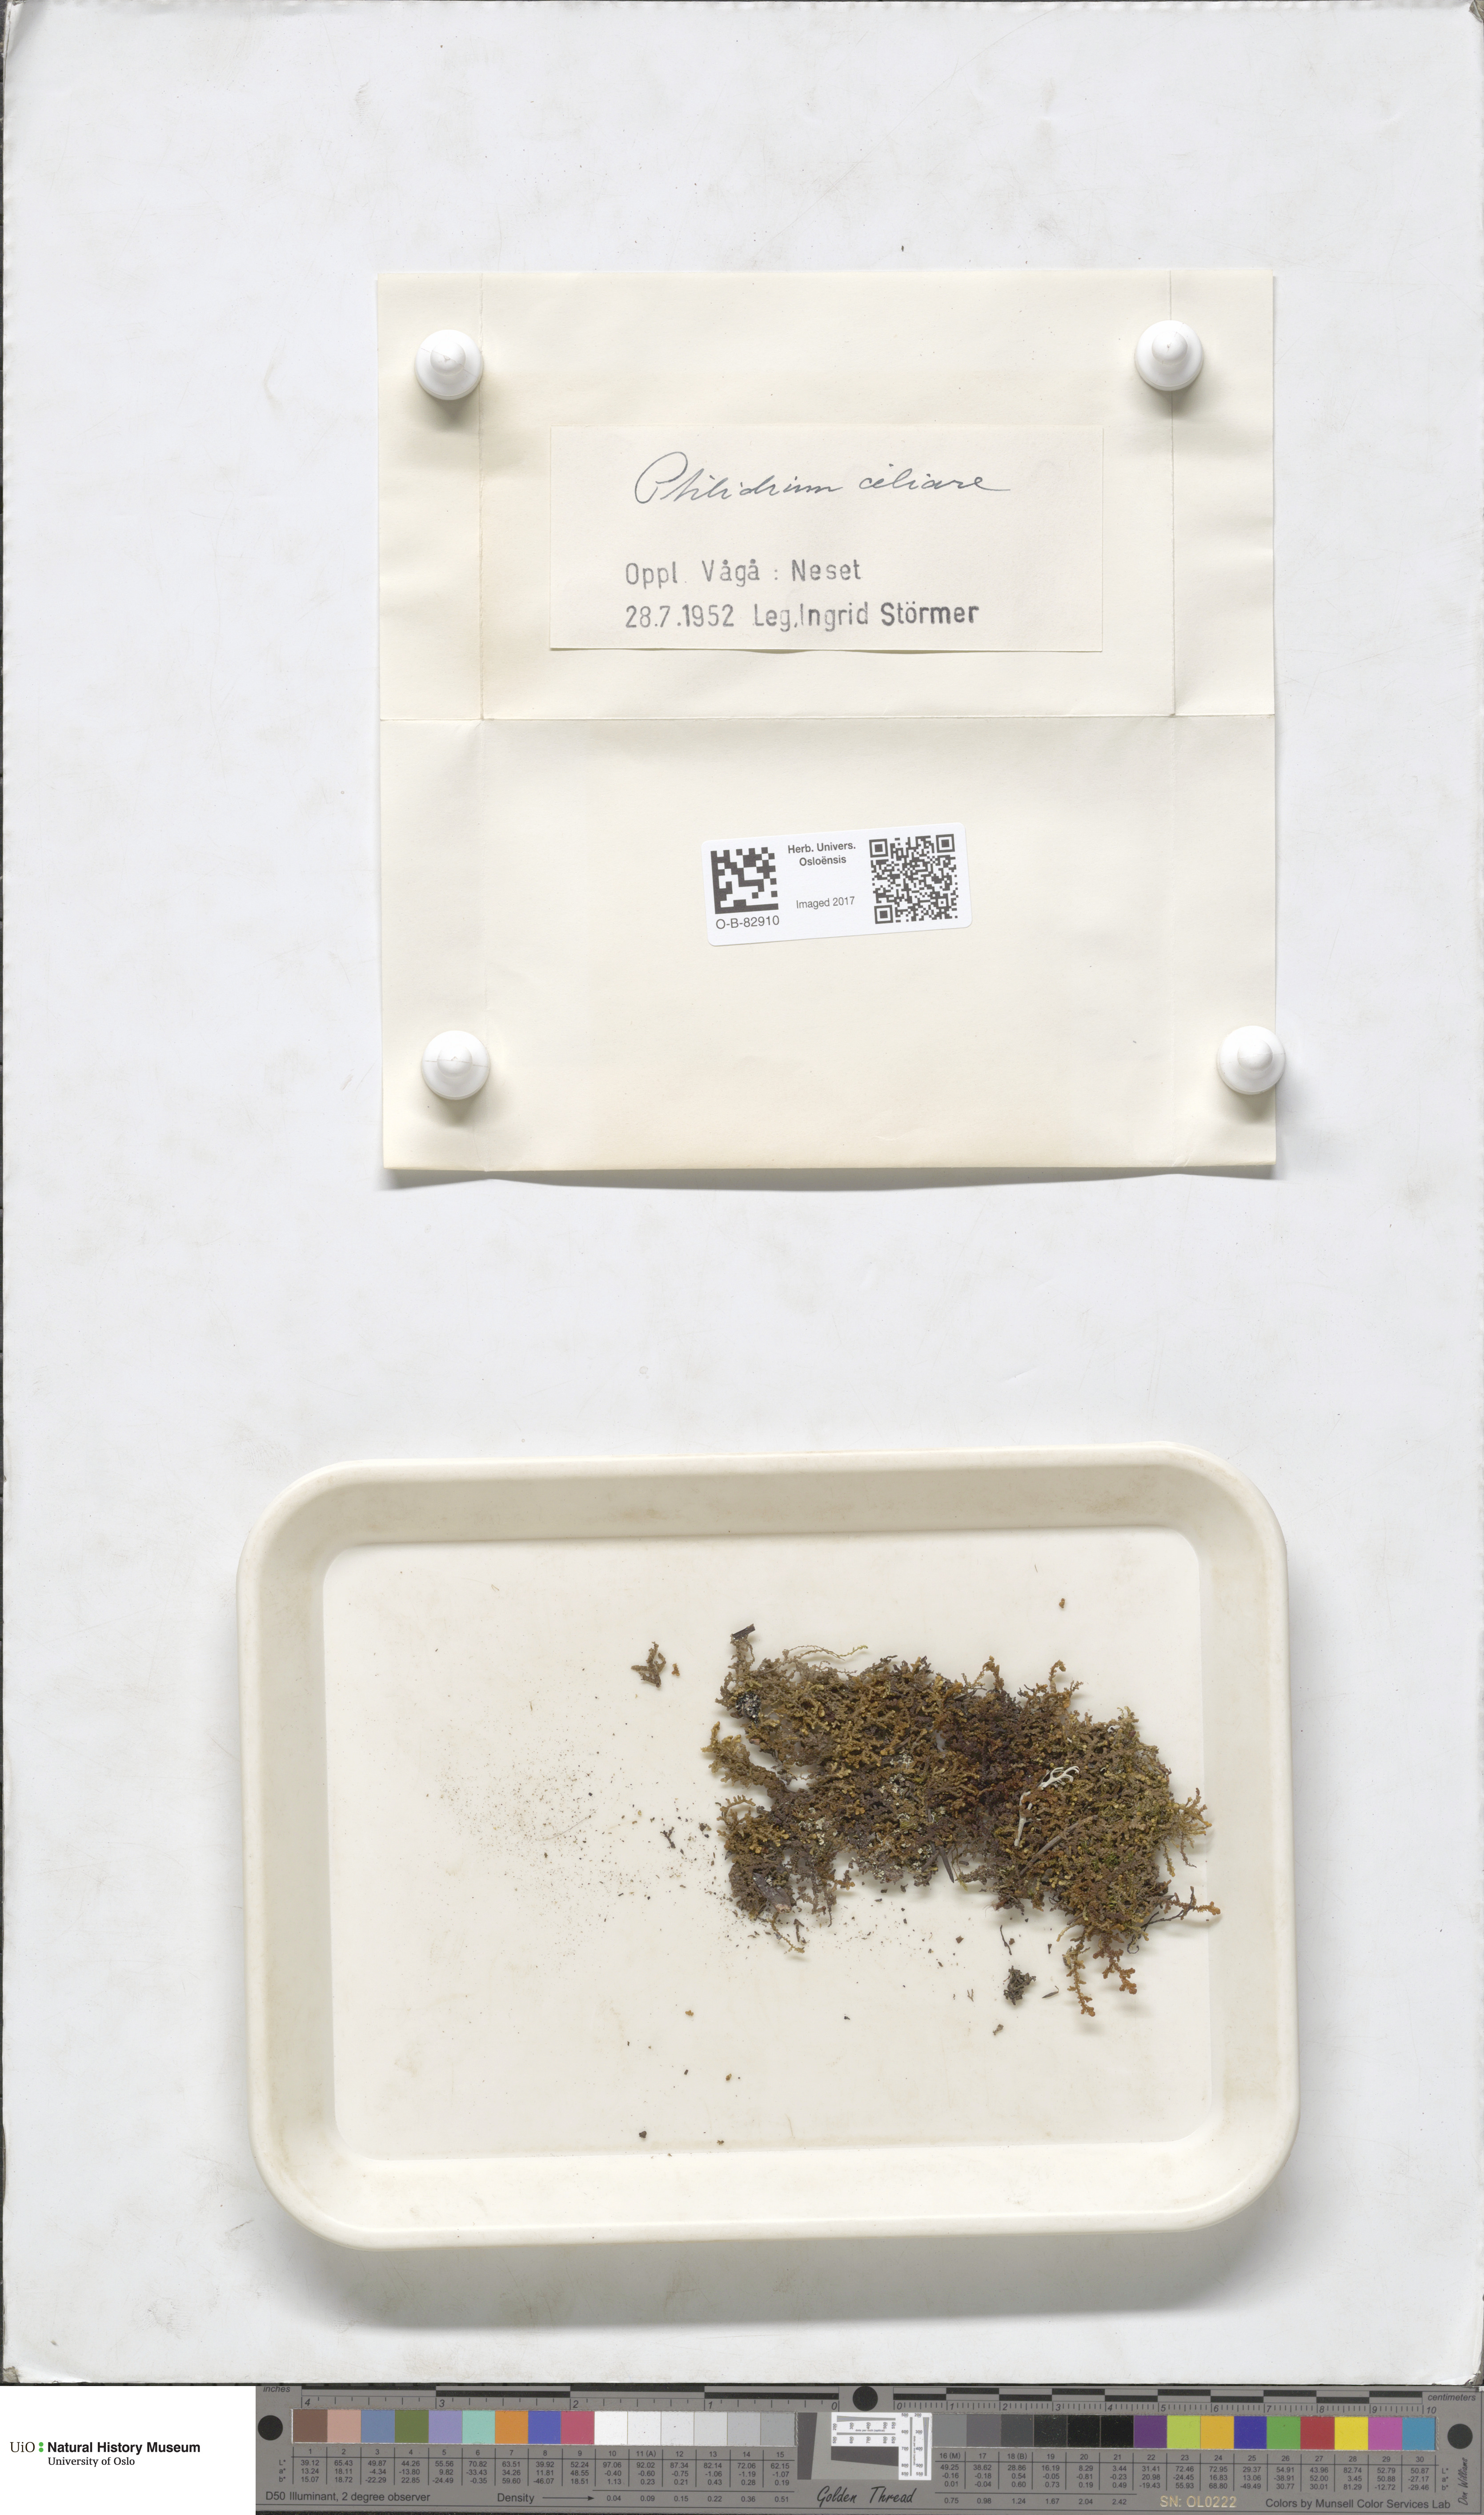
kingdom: Plantae
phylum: Marchantiophyta
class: Jungermanniopsida
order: Ptilidiales
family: Ptilidiaceae
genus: Ptilidium
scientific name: Ptilidium ciliare
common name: Ciliate fringewort
